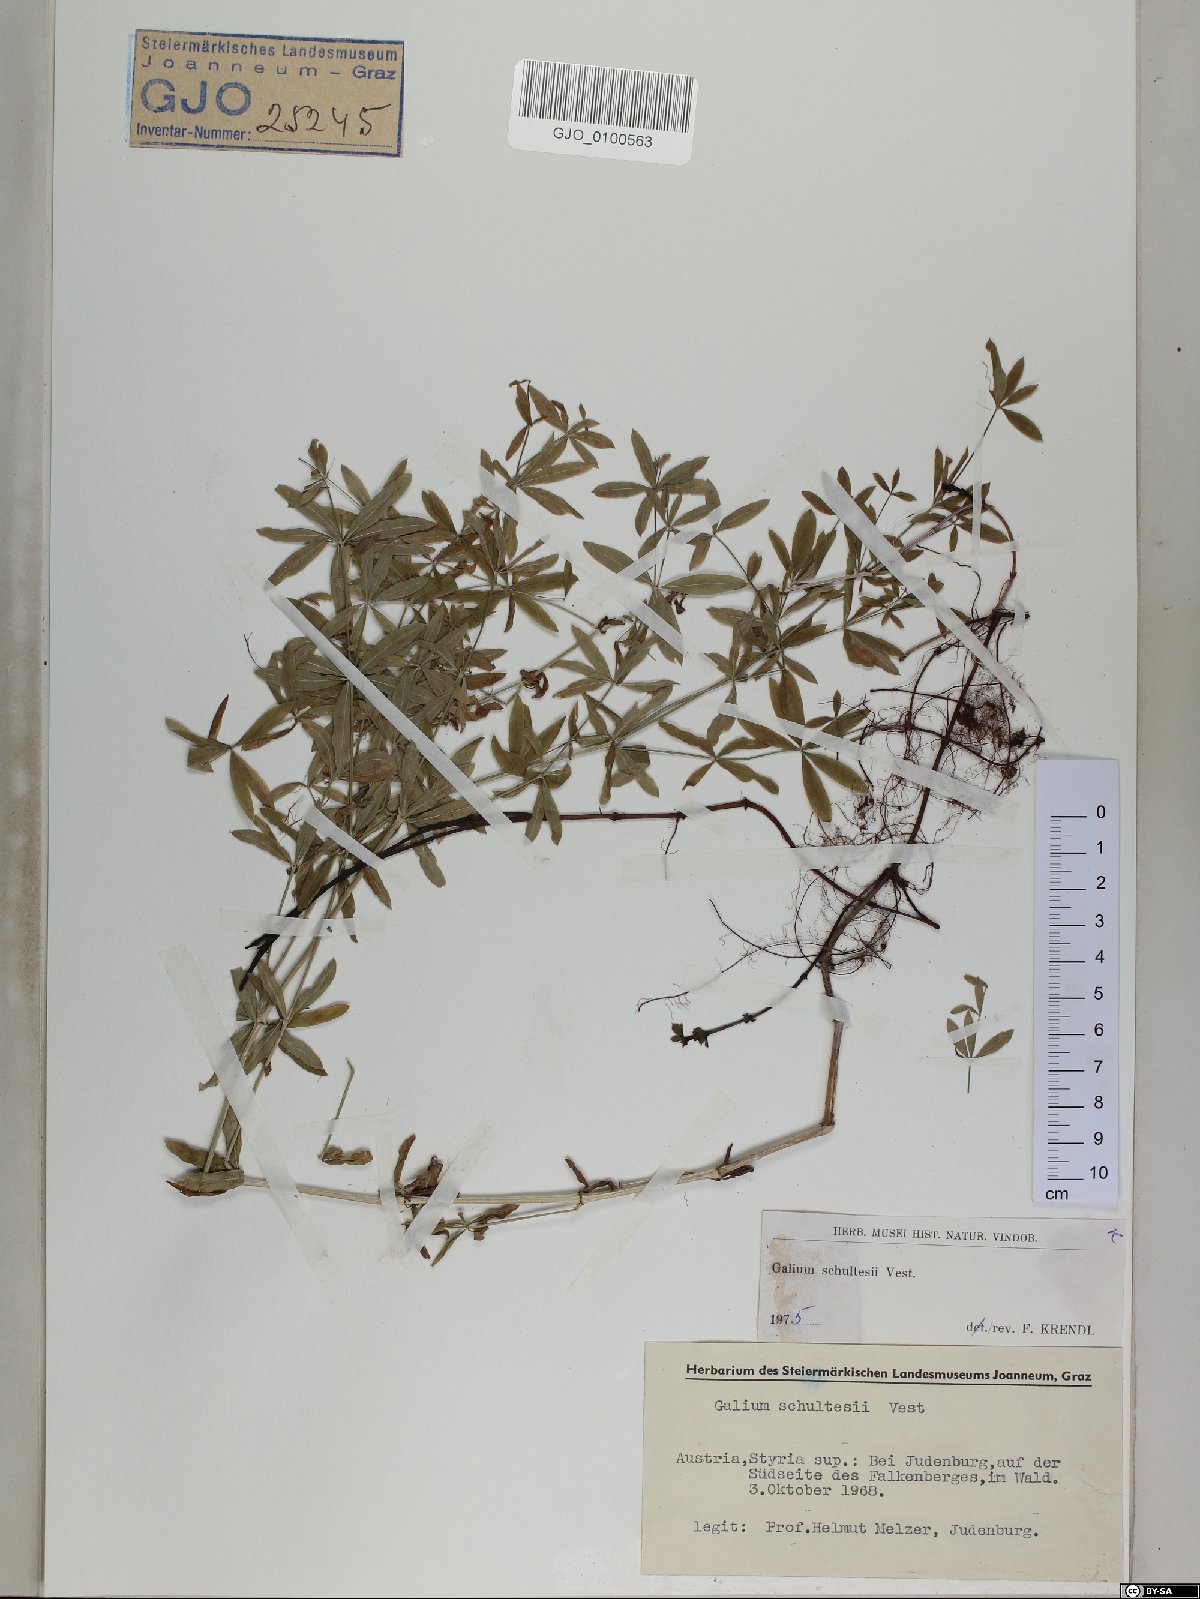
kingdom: Plantae
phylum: Tracheophyta
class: Magnoliopsida
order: Gentianales
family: Rubiaceae
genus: Galium
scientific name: Galium intermedium
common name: Bedstraw
